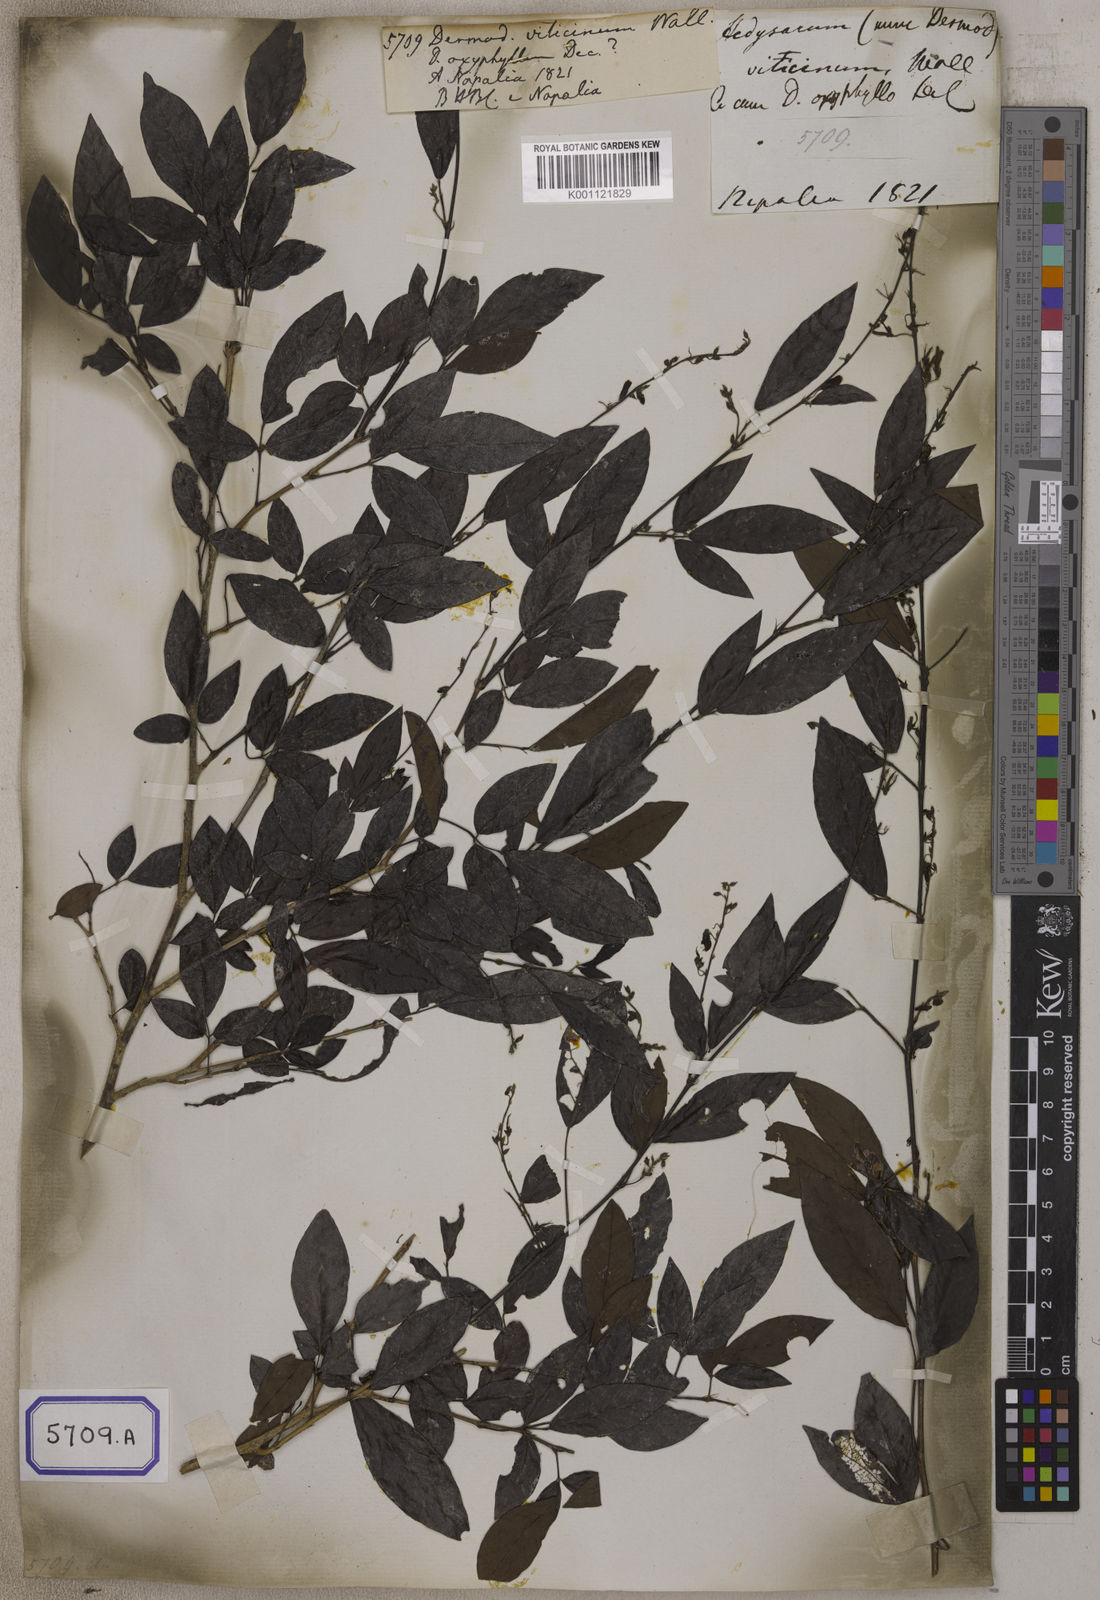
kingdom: Plantae
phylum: Tracheophyta
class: Magnoliopsida
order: Fabales
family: Fabaceae
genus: Desmodium
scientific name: Desmodium
